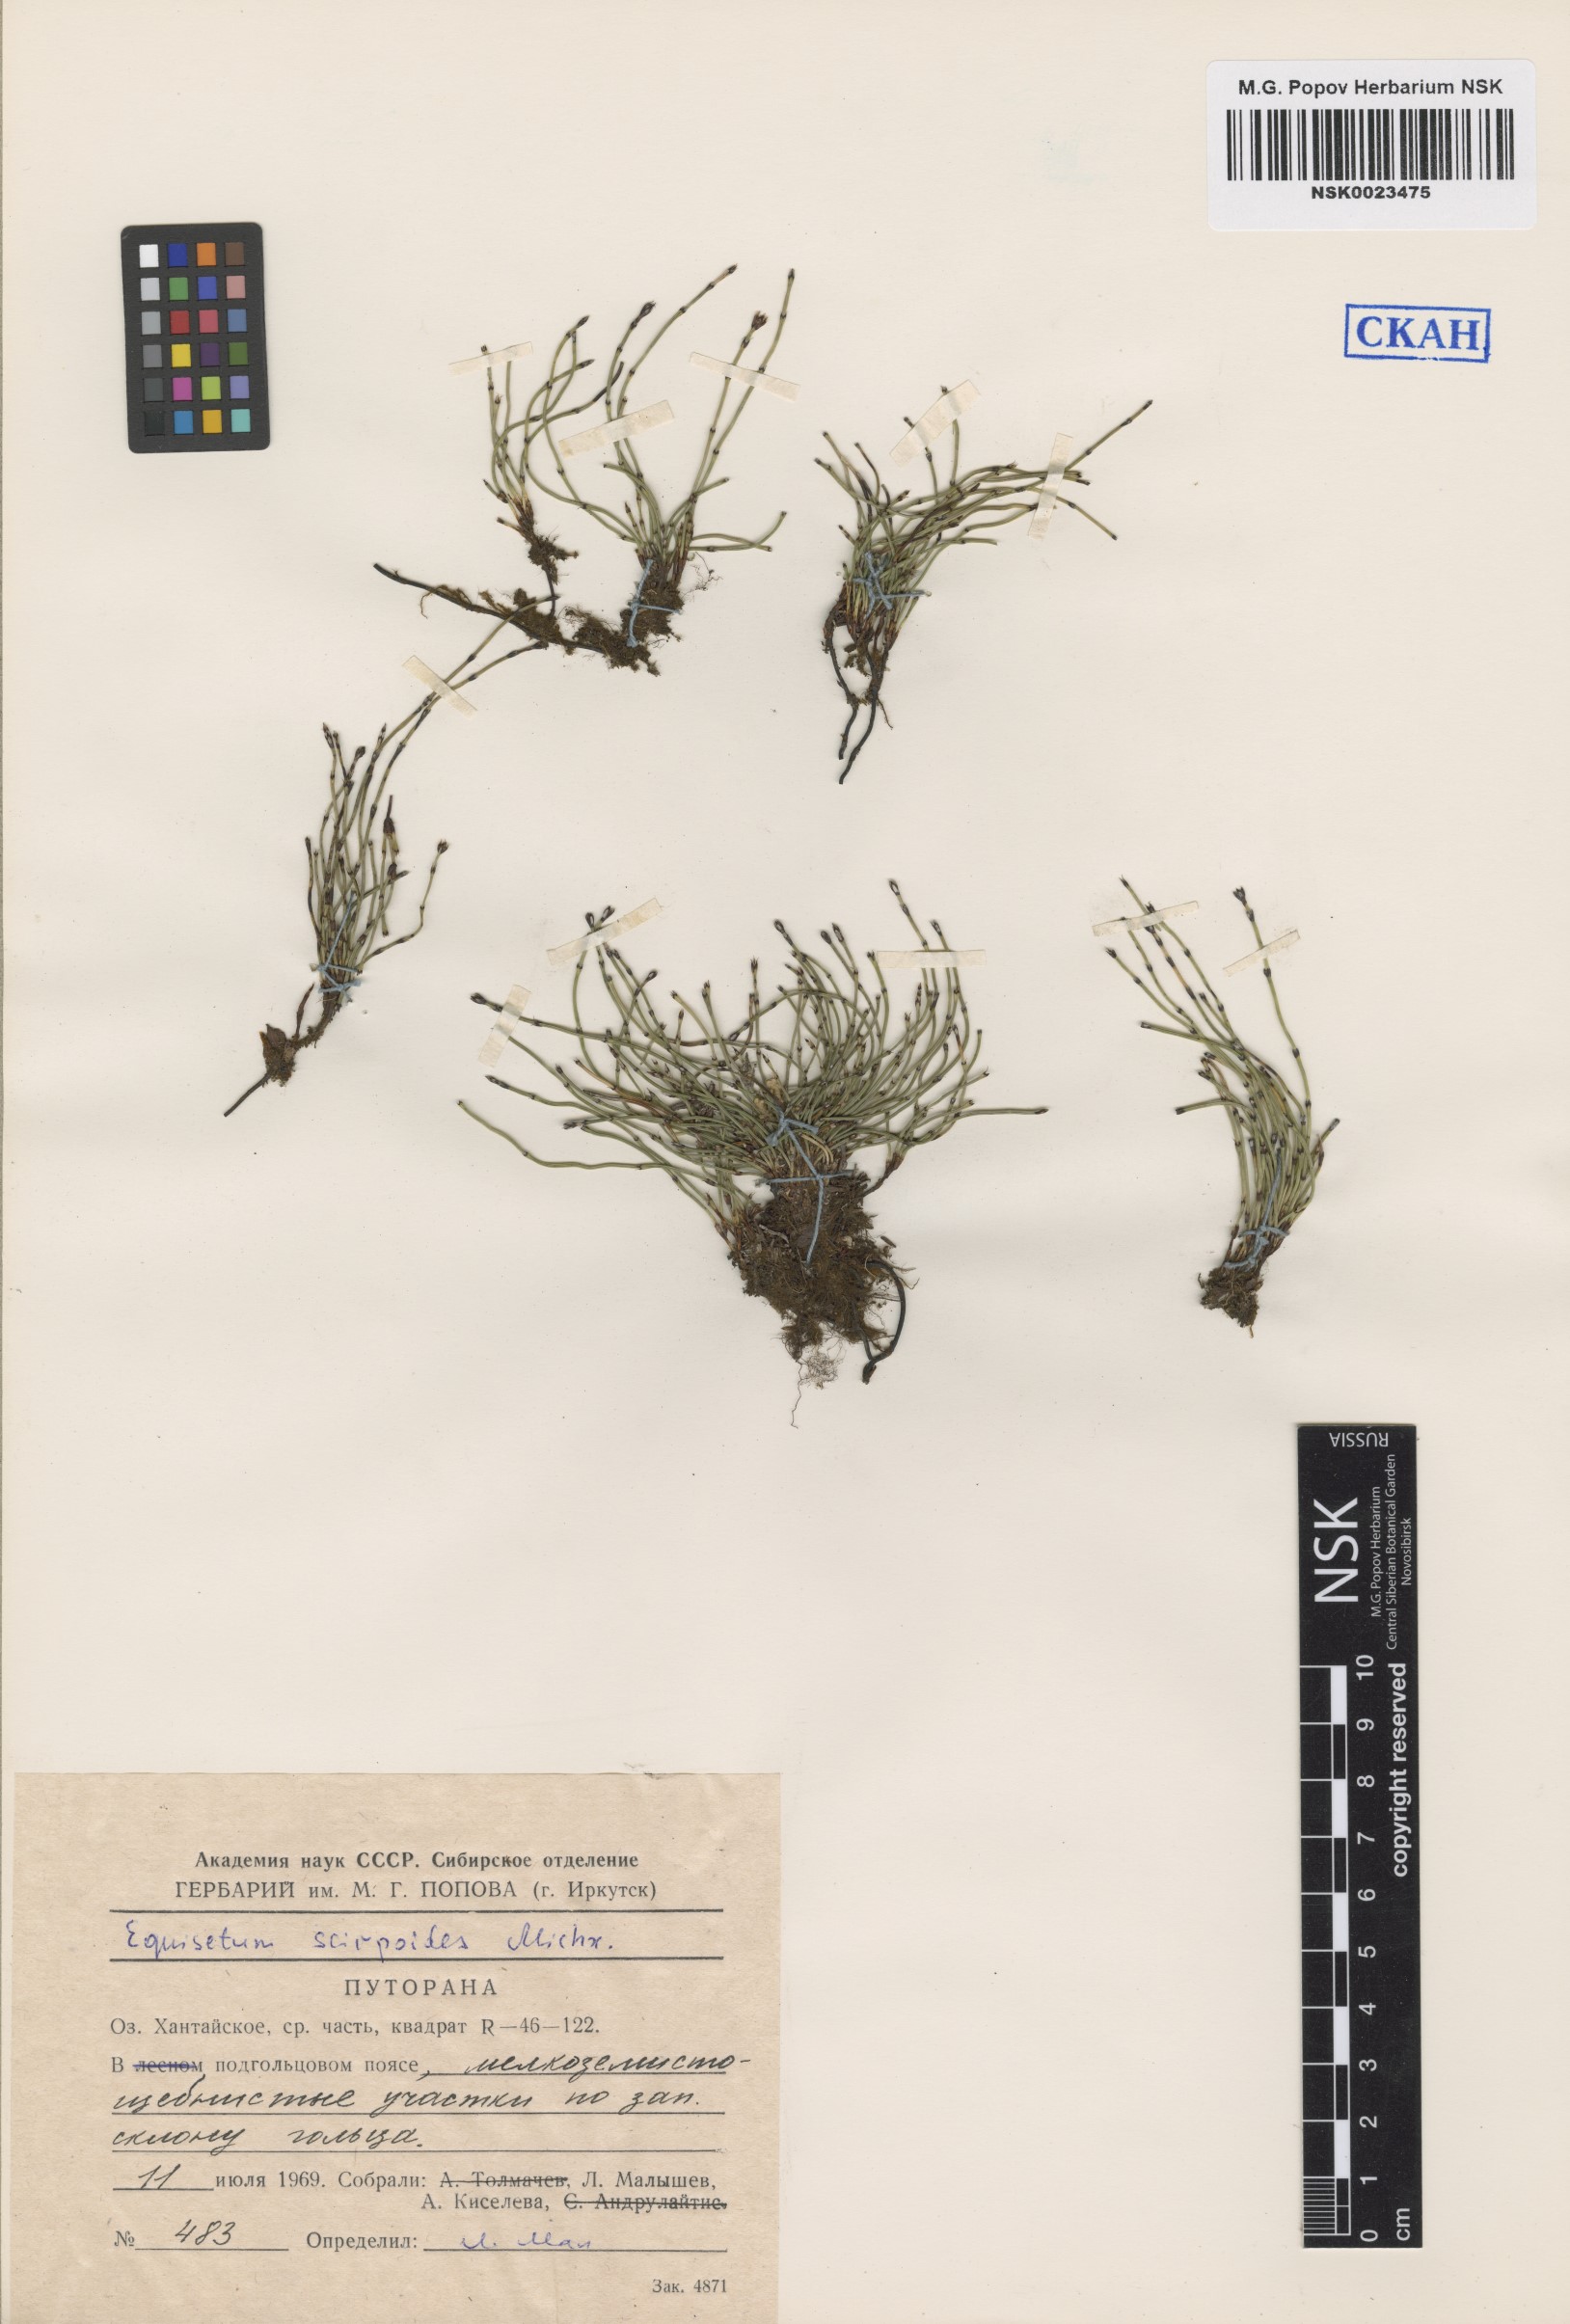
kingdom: Plantae
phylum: Tracheophyta
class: Polypodiopsida
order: Equisetales
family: Equisetaceae
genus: Equisetum
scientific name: Equisetum scirpoides
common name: Delicate horsetail
